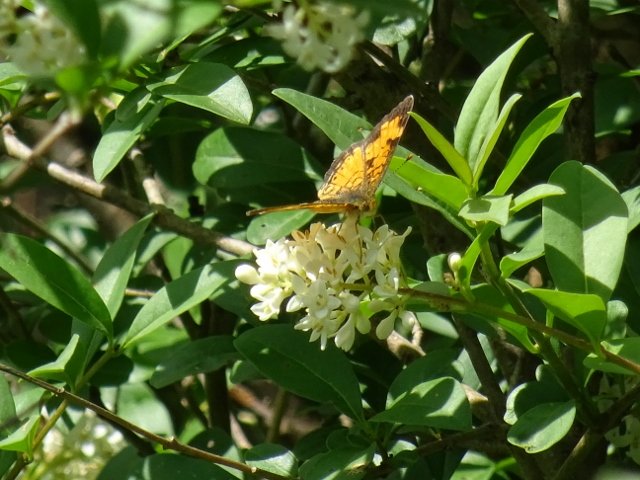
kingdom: Animalia
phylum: Arthropoda
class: Insecta
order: Lepidoptera
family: Nymphalidae
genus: Phyciodes
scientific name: Phyciodes tharos
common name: Northern Crescent
